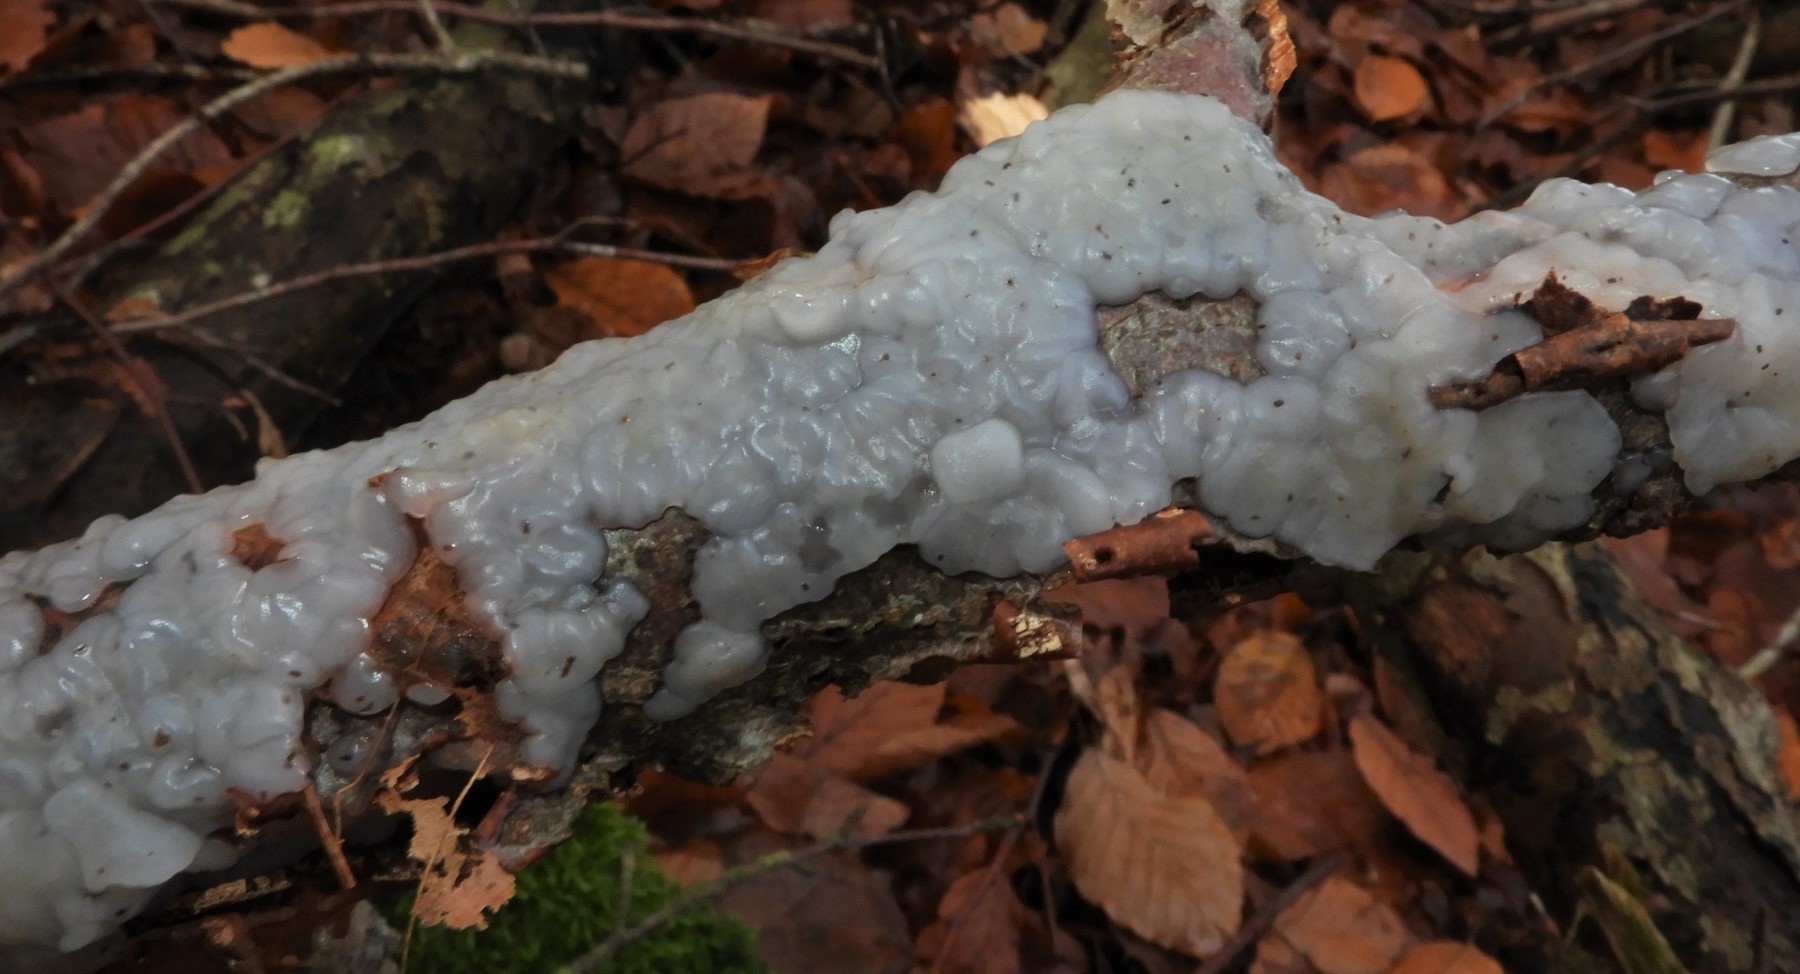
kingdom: Fungi
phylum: Basidiomycota
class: Agaricomycetes
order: Auriculariales
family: Auriculariaceae
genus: Exidia
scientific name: Exidia thuretiana
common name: hvidlig bævretop
